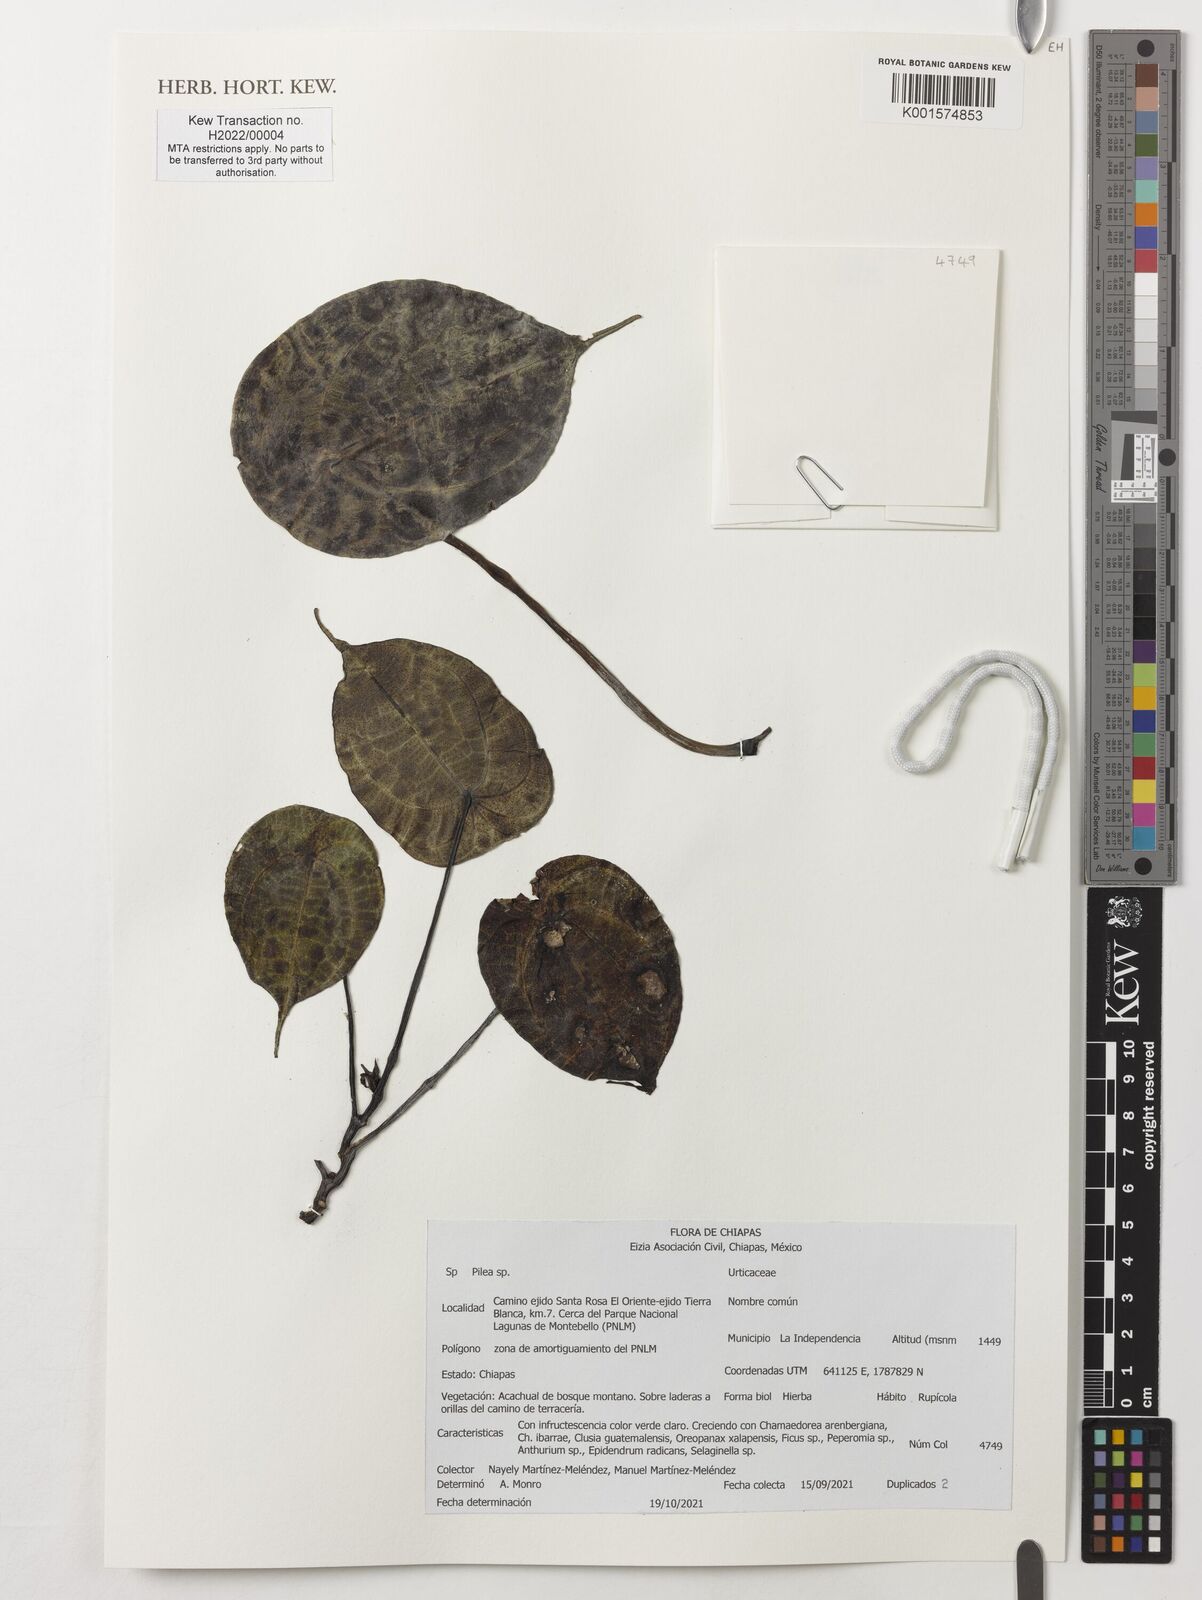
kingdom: Plantae
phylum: Tracheophyta
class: Magnoliopsida
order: Rosales
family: Urticaceae
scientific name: Urticaceae
